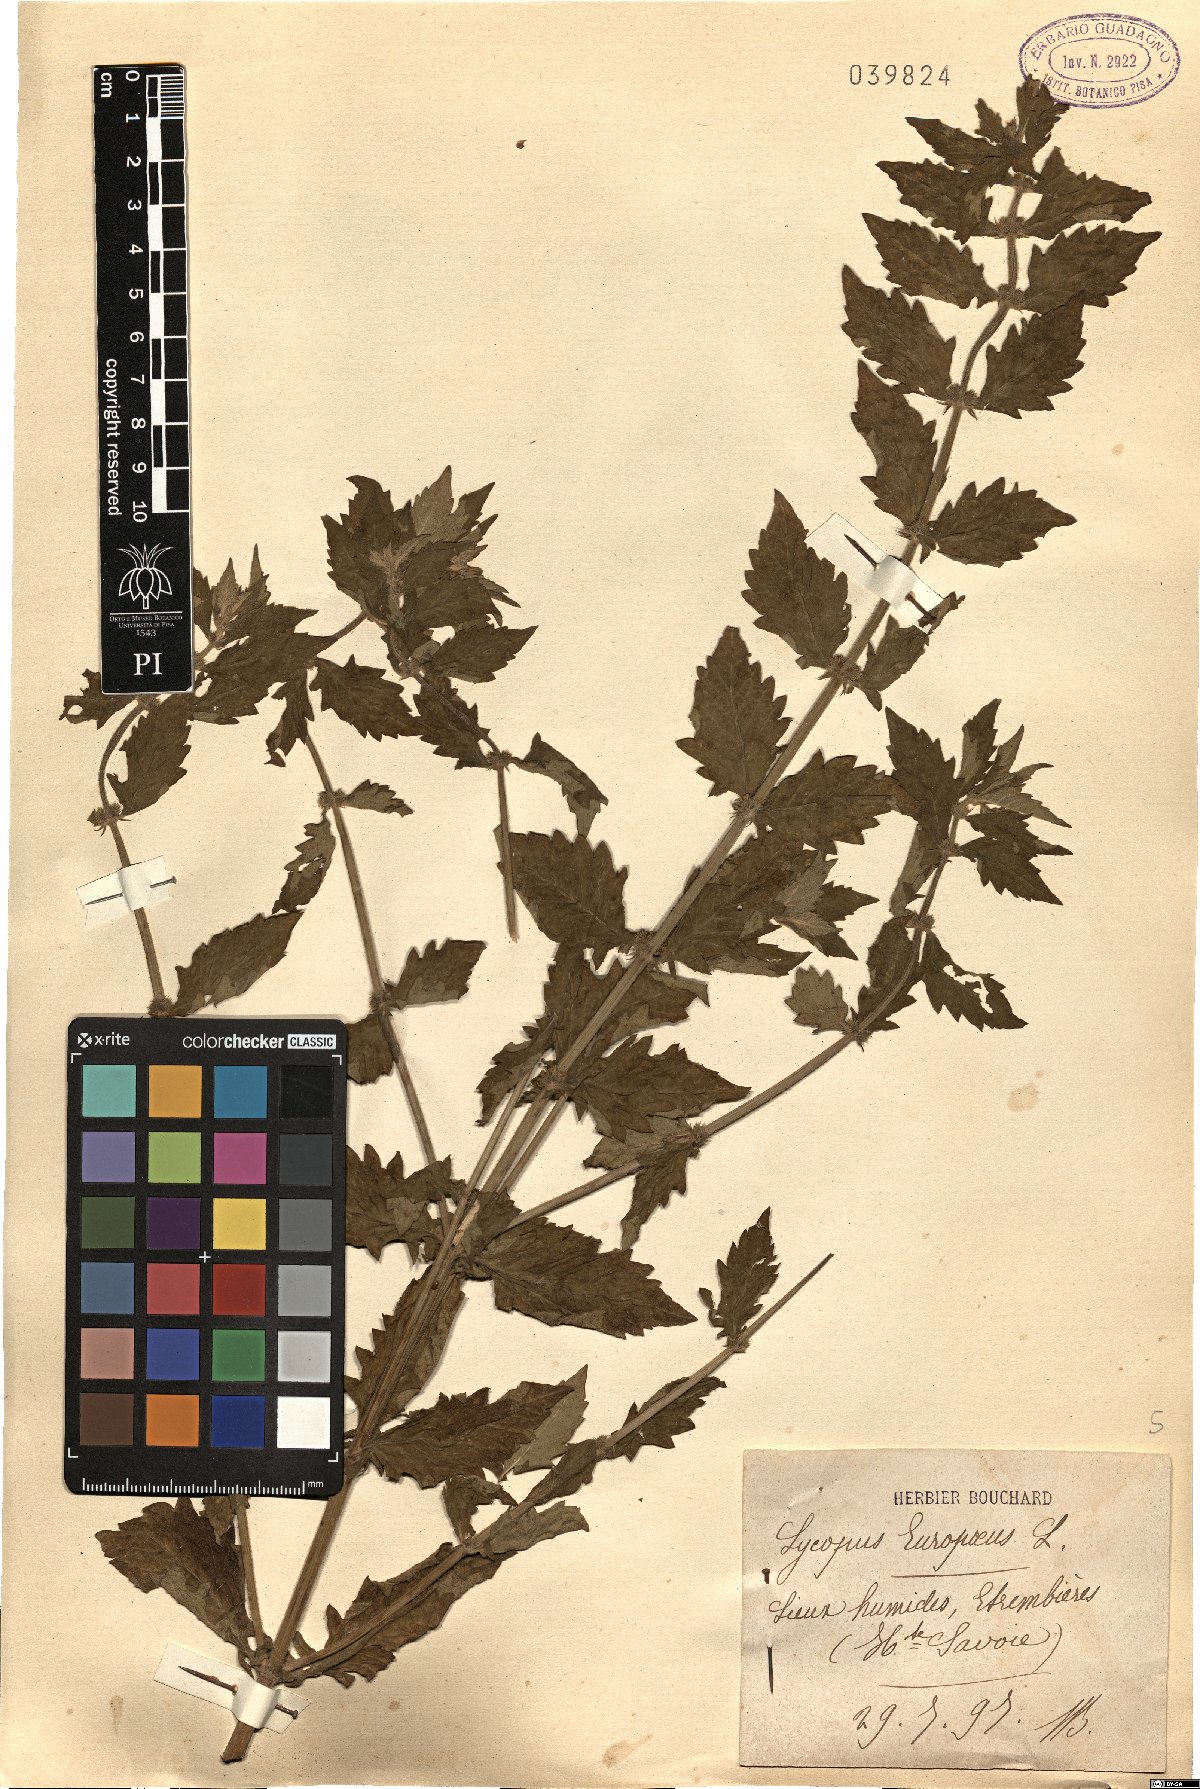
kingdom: Plantae
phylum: Tracheophyta
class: Magnoliopsida
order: Lamiales
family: Lamiaceae
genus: Lycopus
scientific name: Lycopus europaeus
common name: European bugleweed
